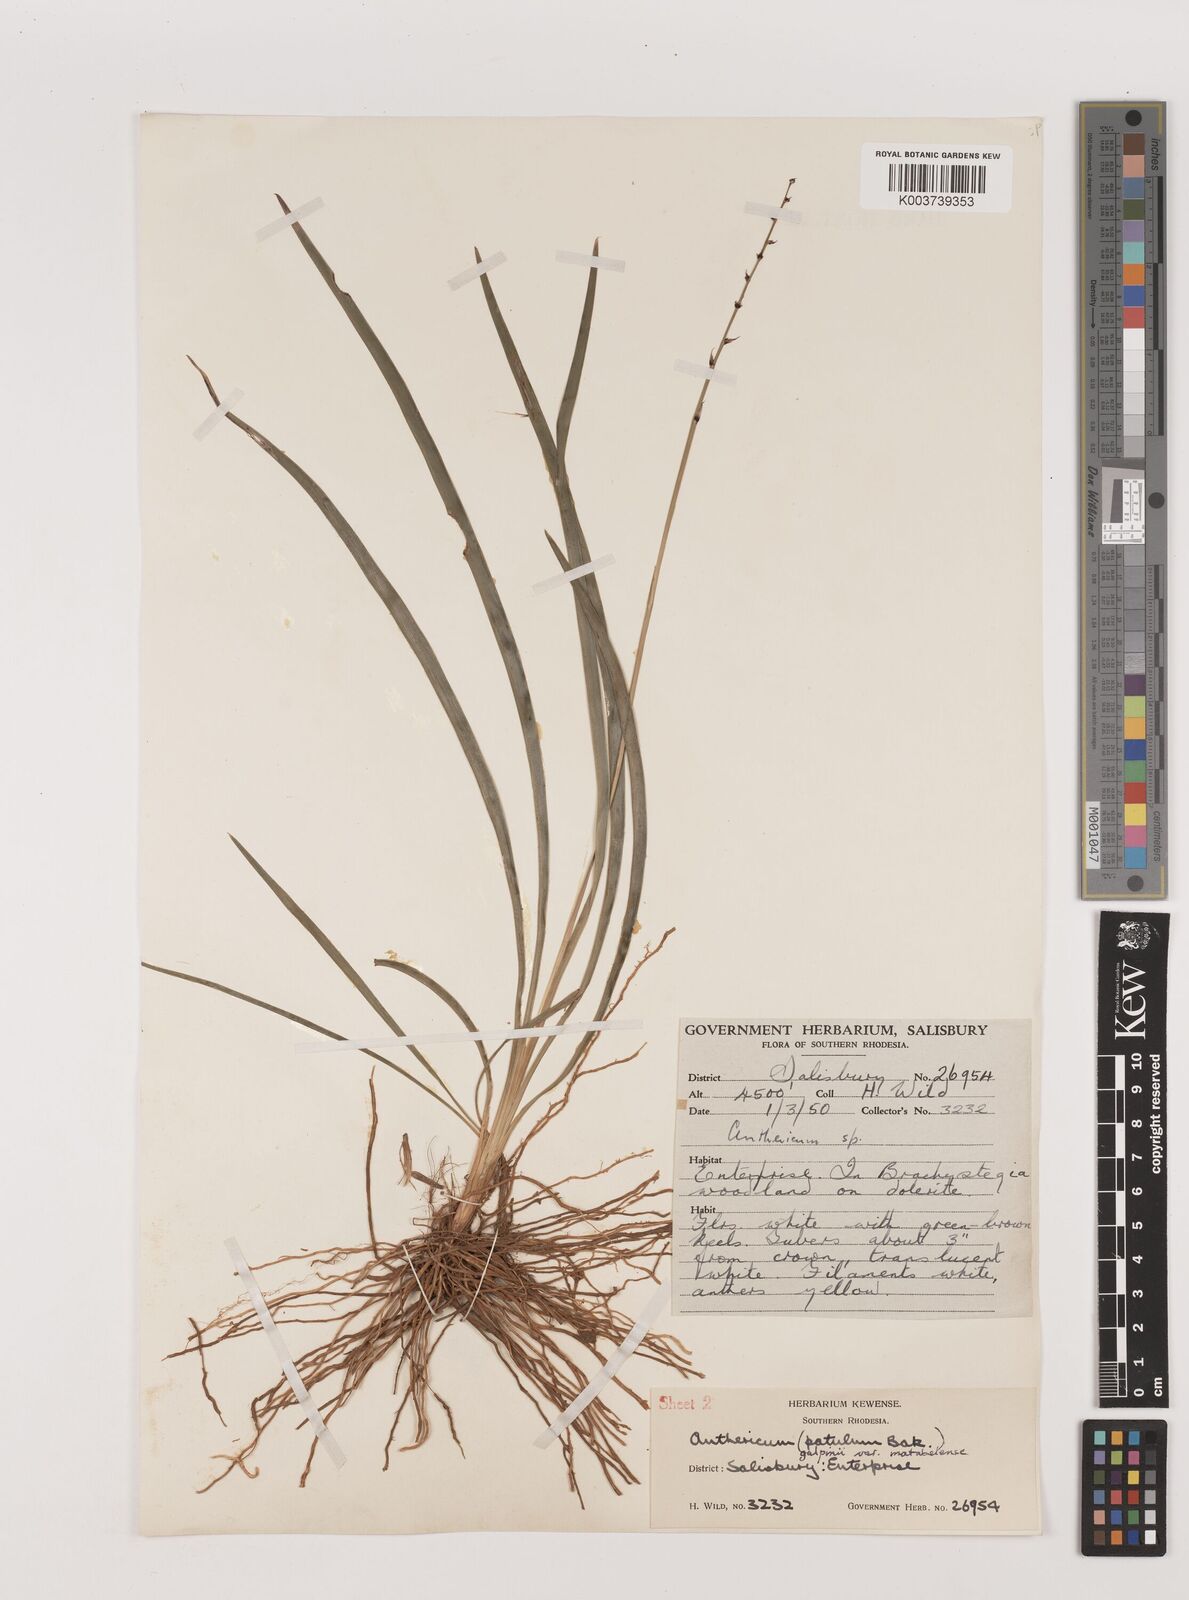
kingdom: Plantae
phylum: Tracheophyta
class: Liliopsida
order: Asparagales
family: Asparagaceae
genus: Chlorophytum
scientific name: Chlorophytum galpinii
